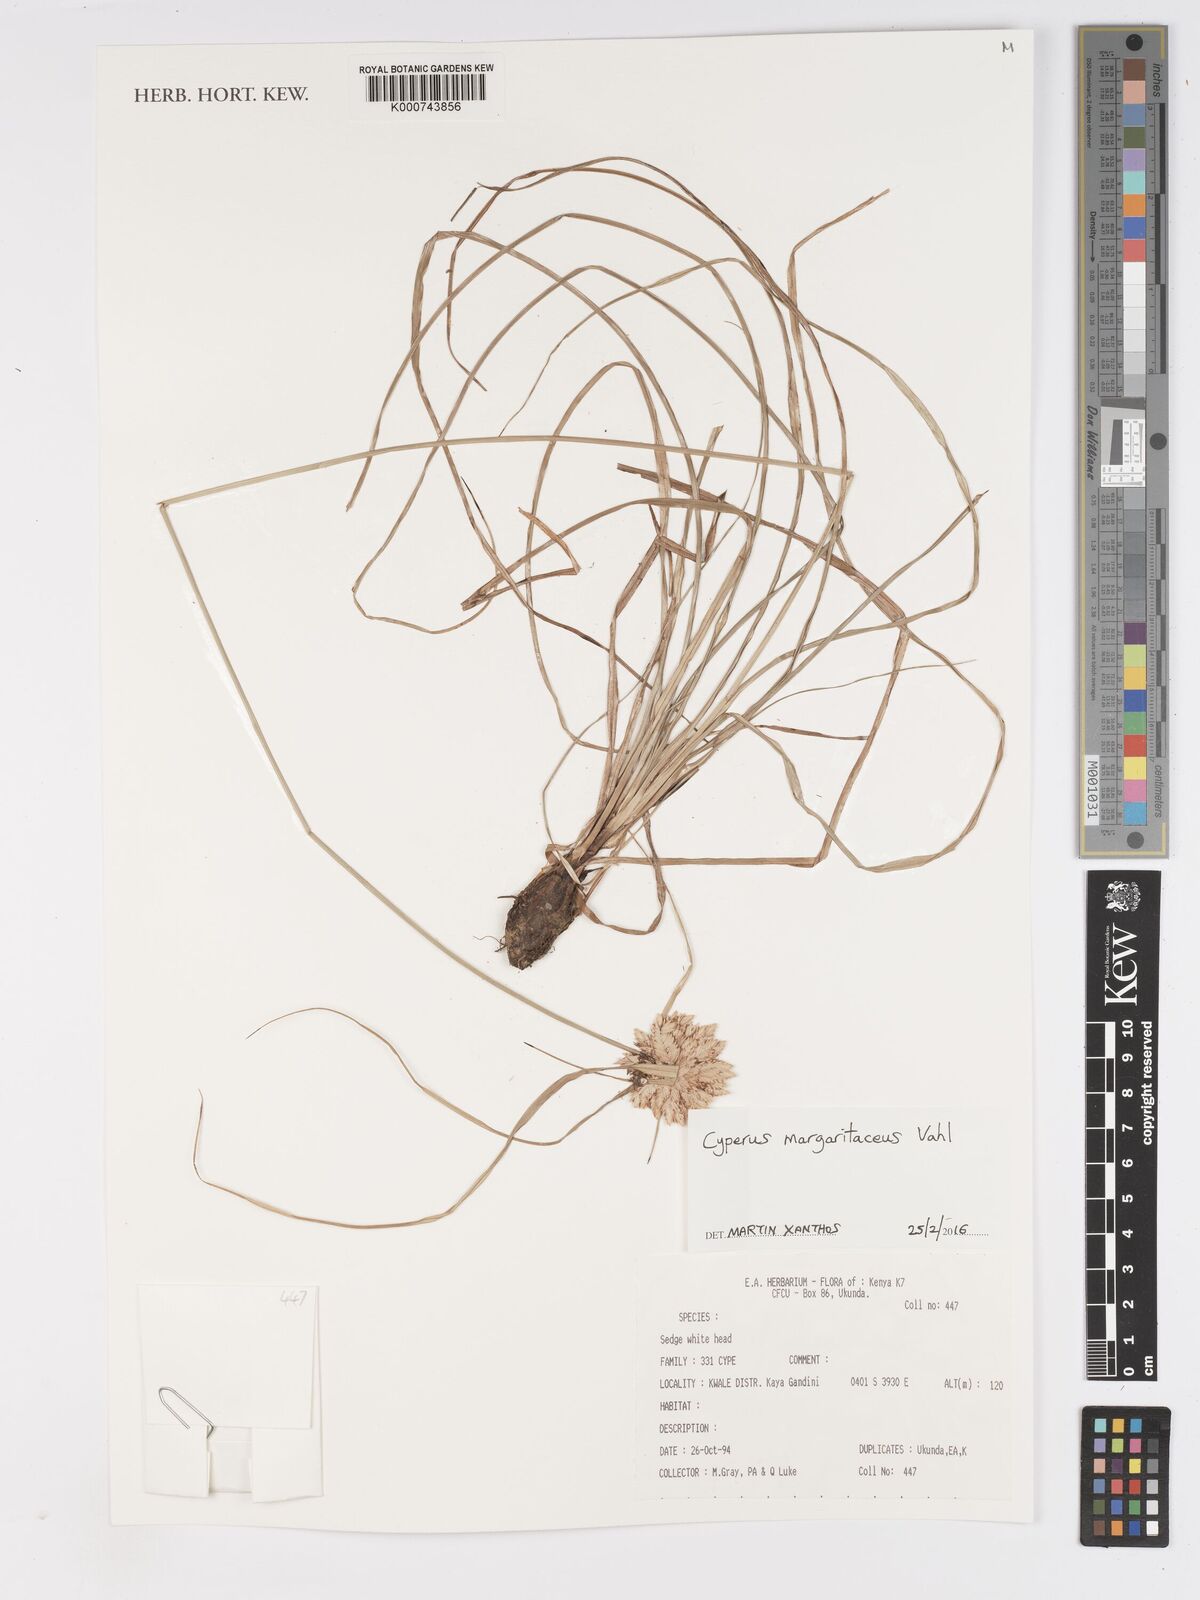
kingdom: Plantae
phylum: Tracheophyta
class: Liliopsida
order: Poales
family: Cyperaceae
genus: Cyperus
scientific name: Cyperus margaritaceus
